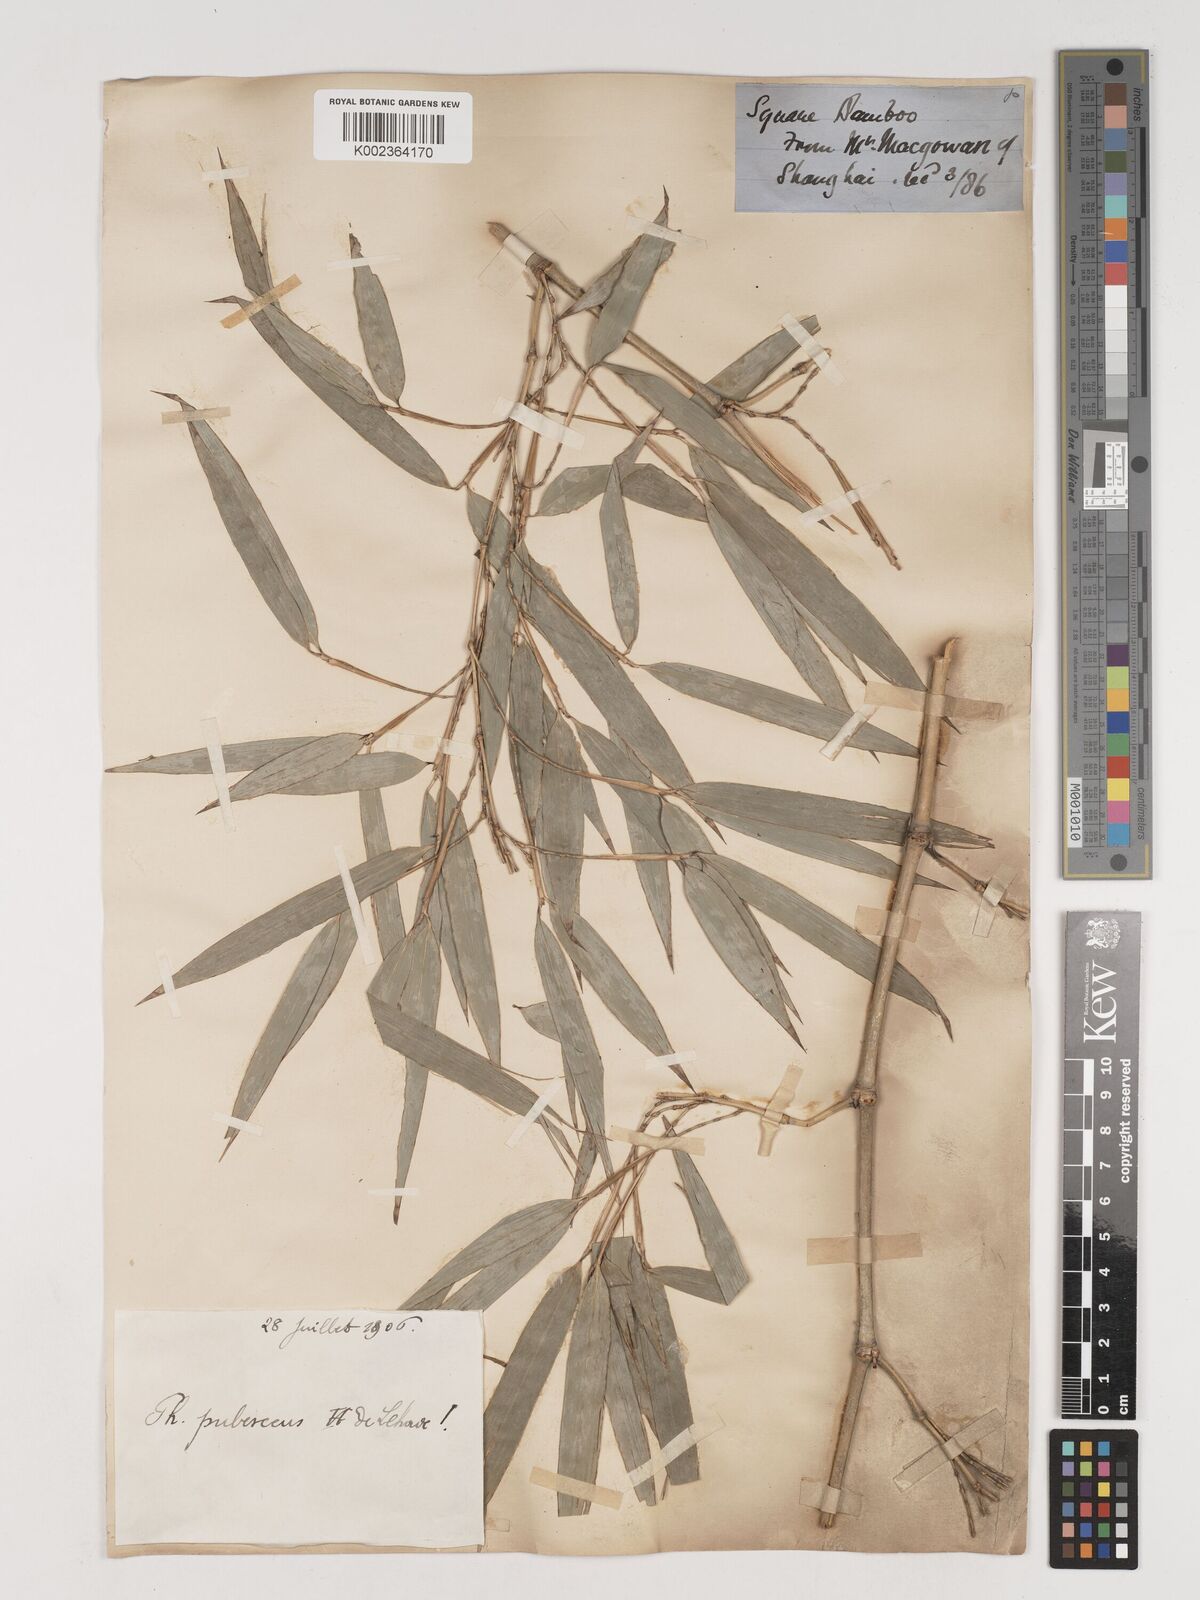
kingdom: Plantae
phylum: Tracheophyta
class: Liliopsida
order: Poales
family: Poaceae
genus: Phyllostachys
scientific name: Phyllostachys nidularia
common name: Broom bamboo
